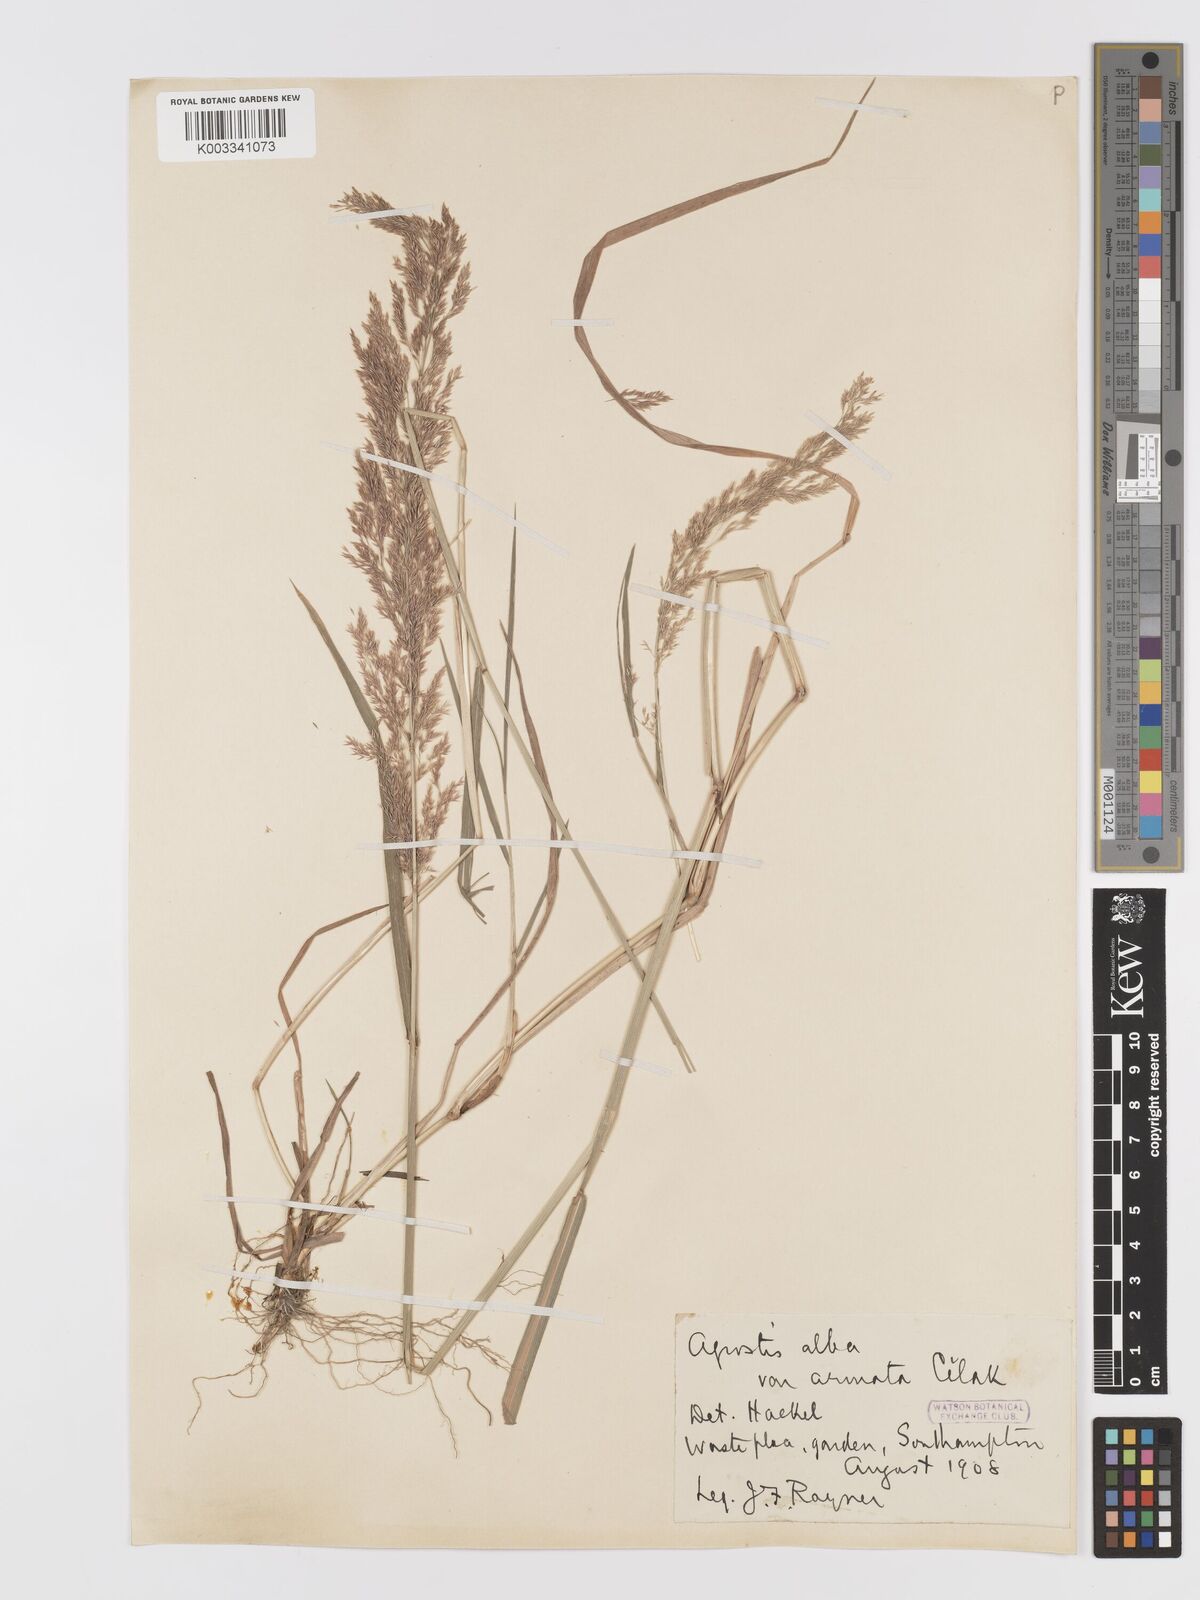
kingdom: Plantae
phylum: Tracheophyta
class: Liliopsida
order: Poales
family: Poaceae
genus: Agrostis
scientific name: Agrostis gigantea
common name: Black bent
